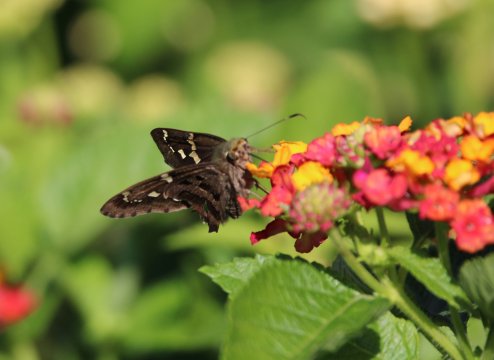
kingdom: Animalia
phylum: Arthropoda
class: Insecta
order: Lepidoptera
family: Hesperiidae
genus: Urbanus
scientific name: Urbanus proteus
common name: Long-tailed Skipper
